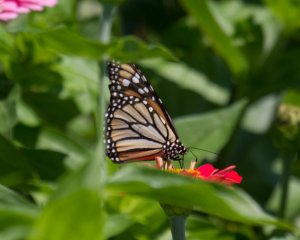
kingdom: Animalia
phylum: Arthropoda
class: Insecta
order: Lepidoptera
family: Nymphalidae
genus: Danaus
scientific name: Danaus plexippus
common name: Monarch
